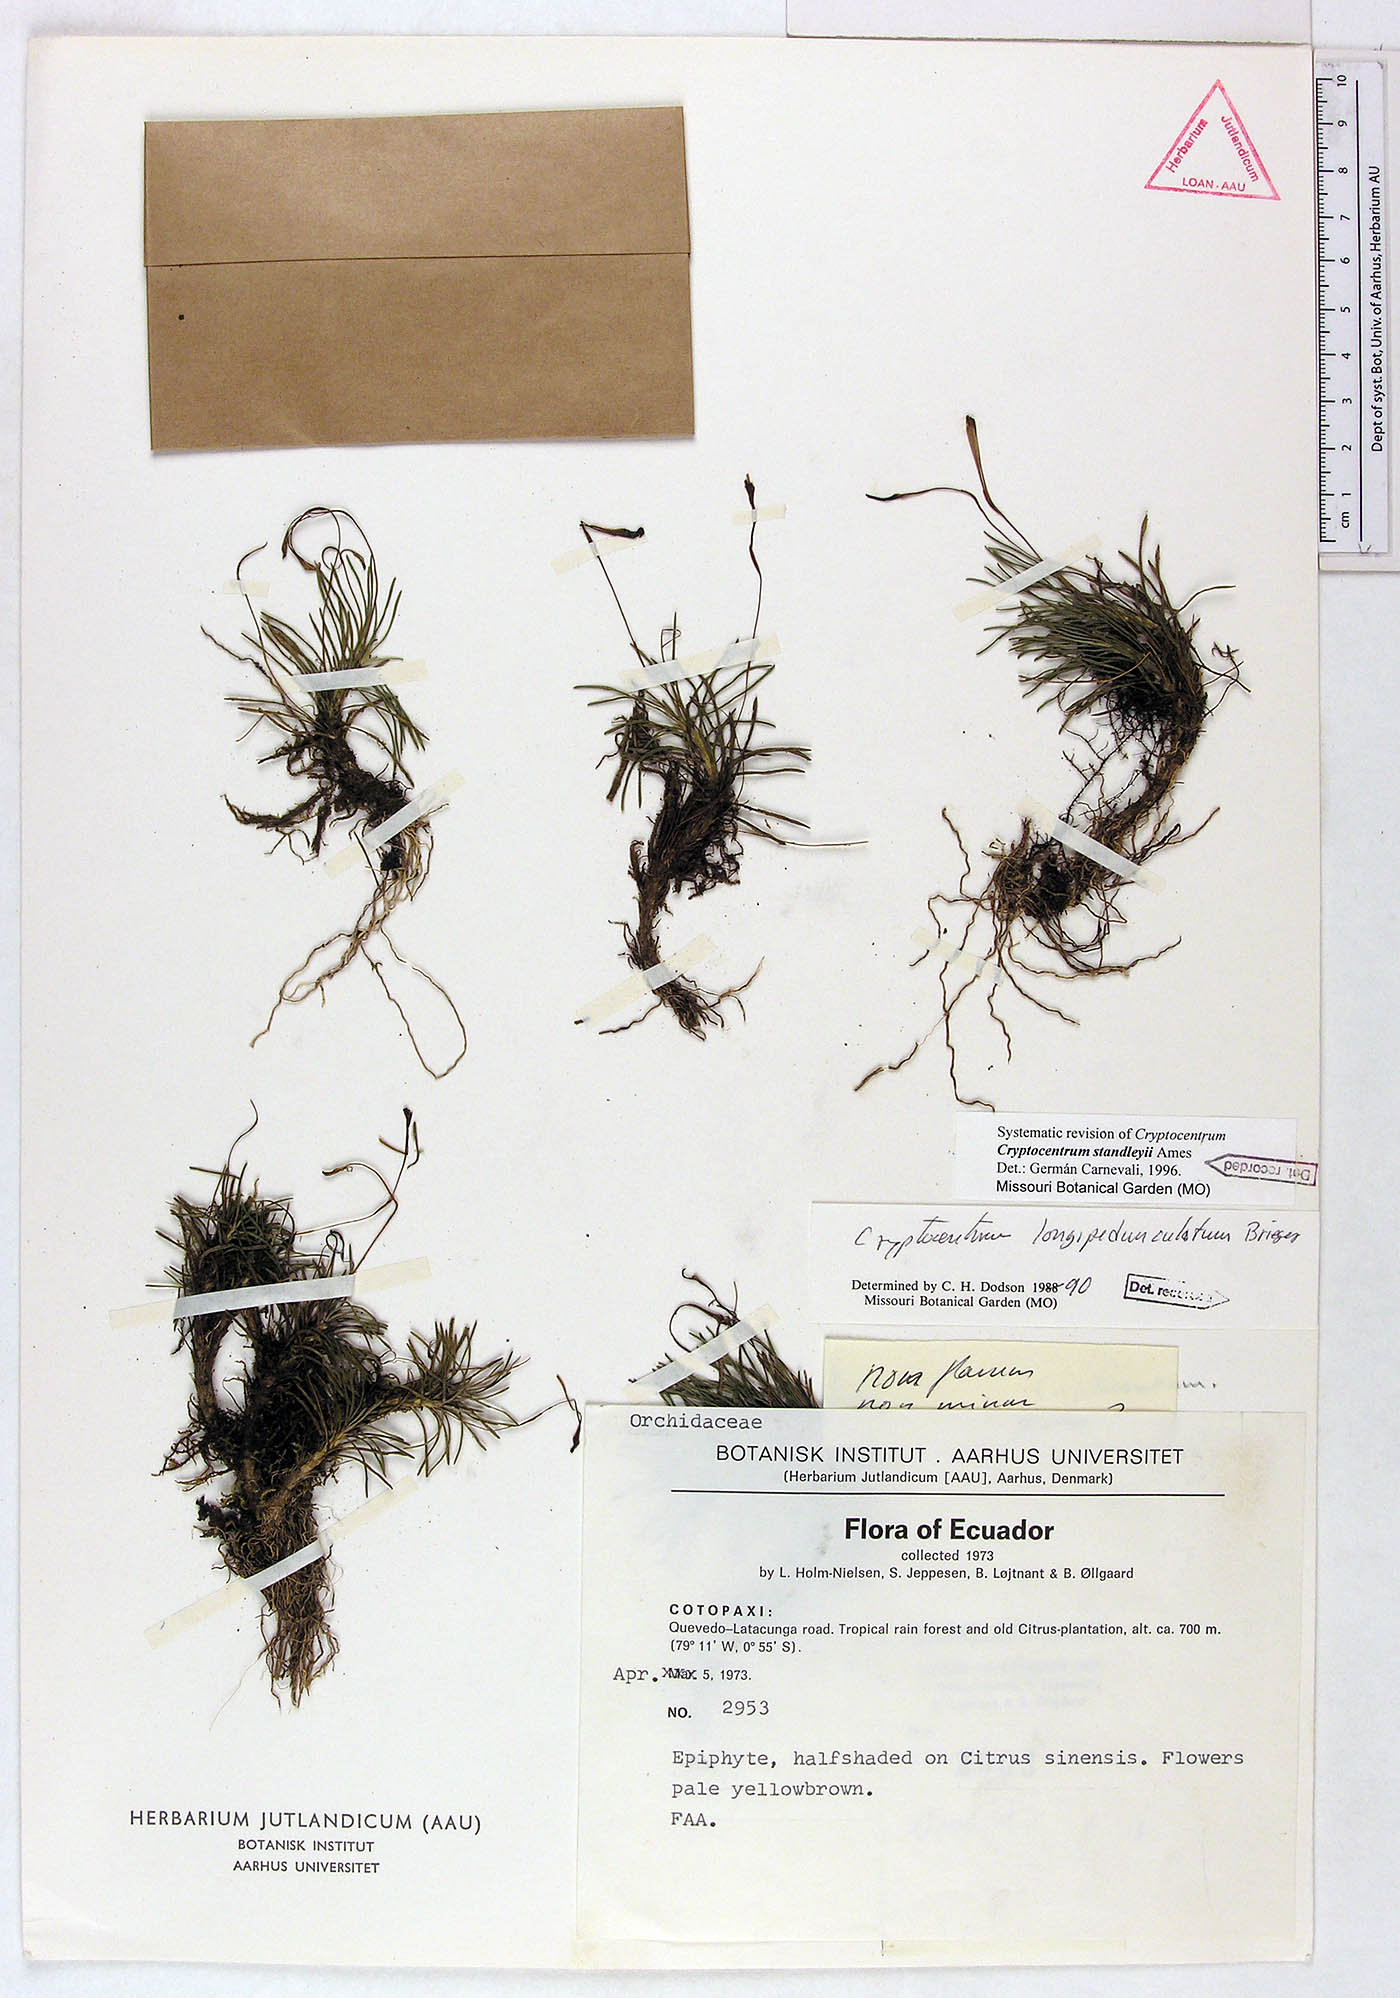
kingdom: Plantae
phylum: Tracheophyta
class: Liliopsida
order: Asparagales
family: Orchidaceae
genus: Maxillaria
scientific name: Maxillaria standleyi
